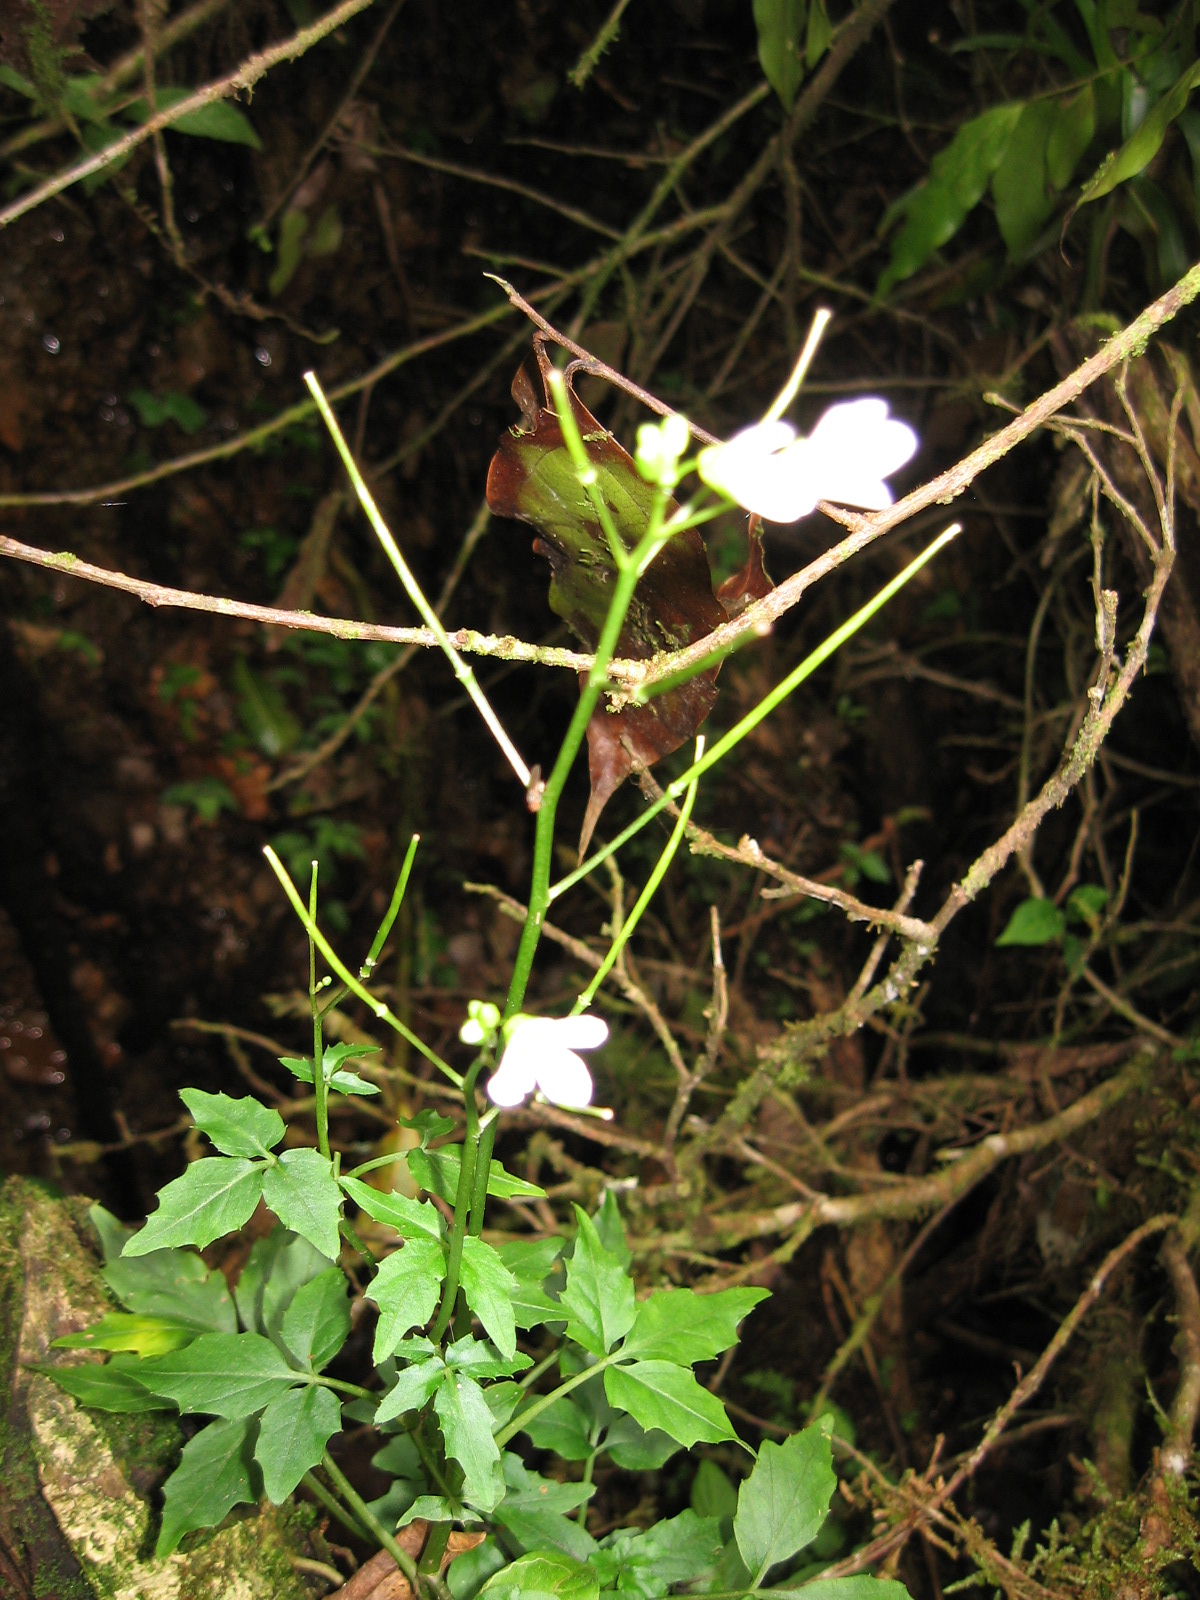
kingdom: Plantae
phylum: Tracheophyta
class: Magnoliopsida
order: Brassicales
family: Brassicaceae
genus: Cardamine
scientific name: Cardamine africana
